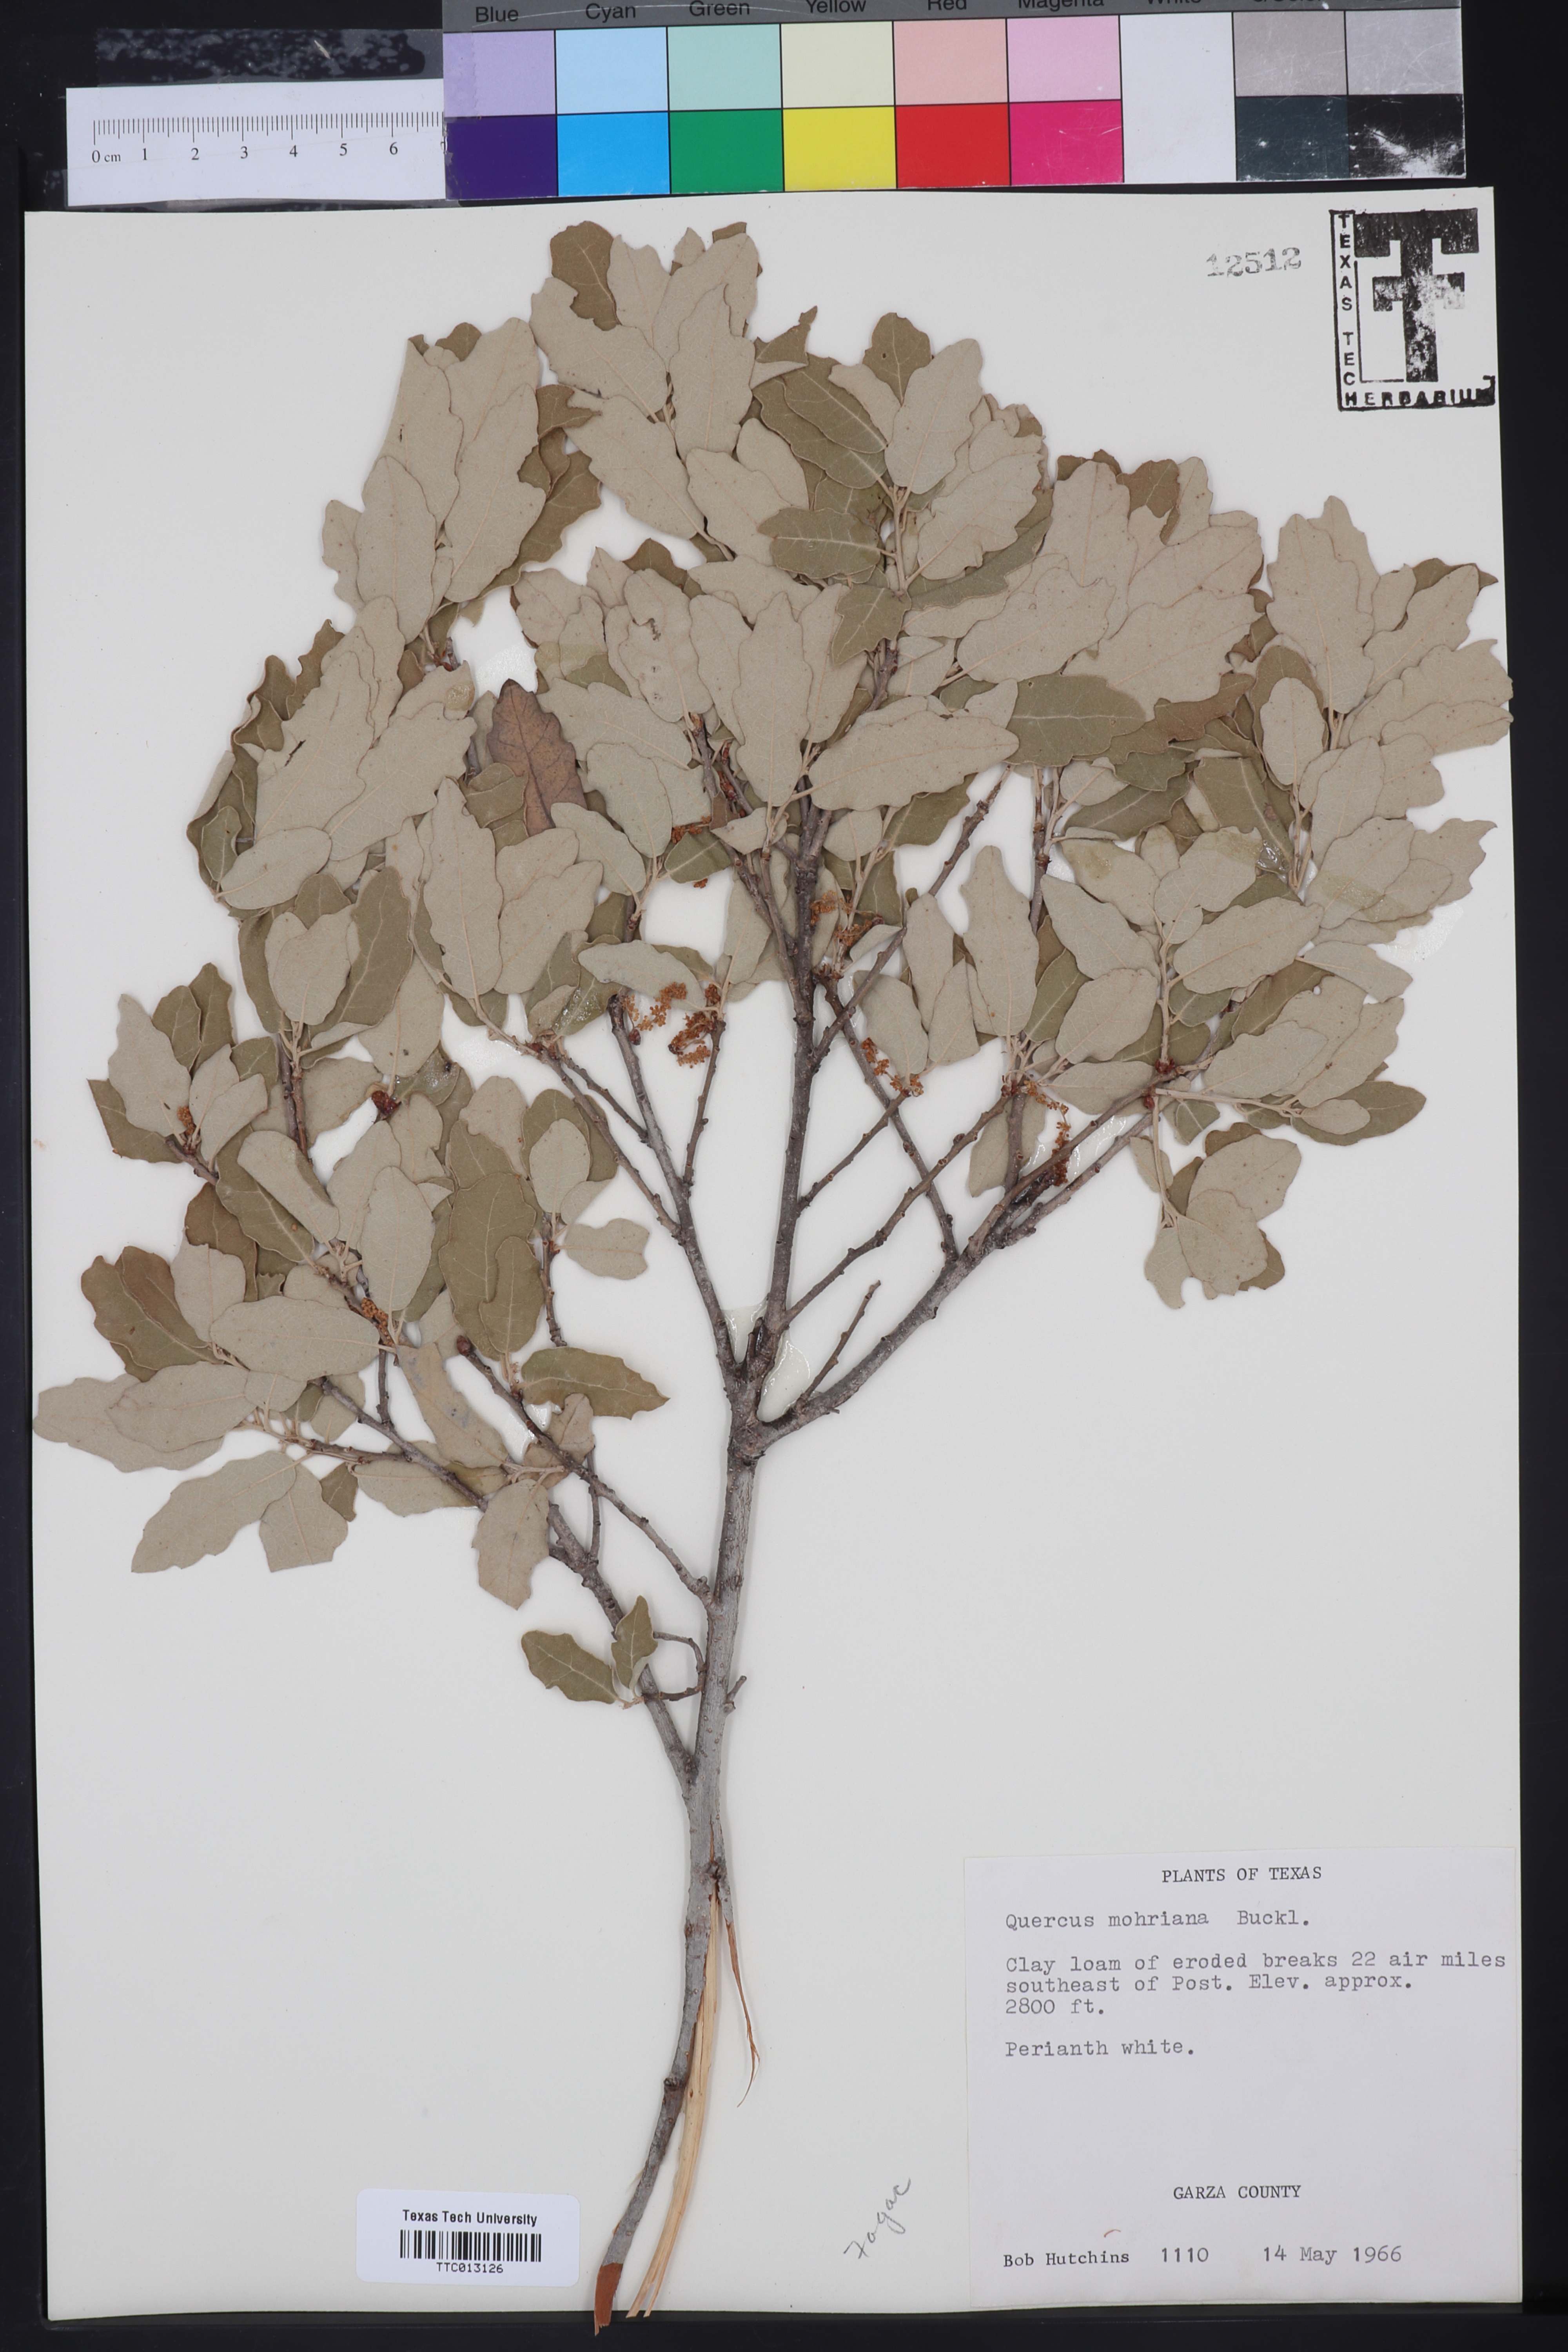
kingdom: Plantae
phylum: Tracheophyta
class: Magnoliopsida
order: Fagales
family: Fagaceae
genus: Quercus
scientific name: Quercus mohriana
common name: Mohr oak
